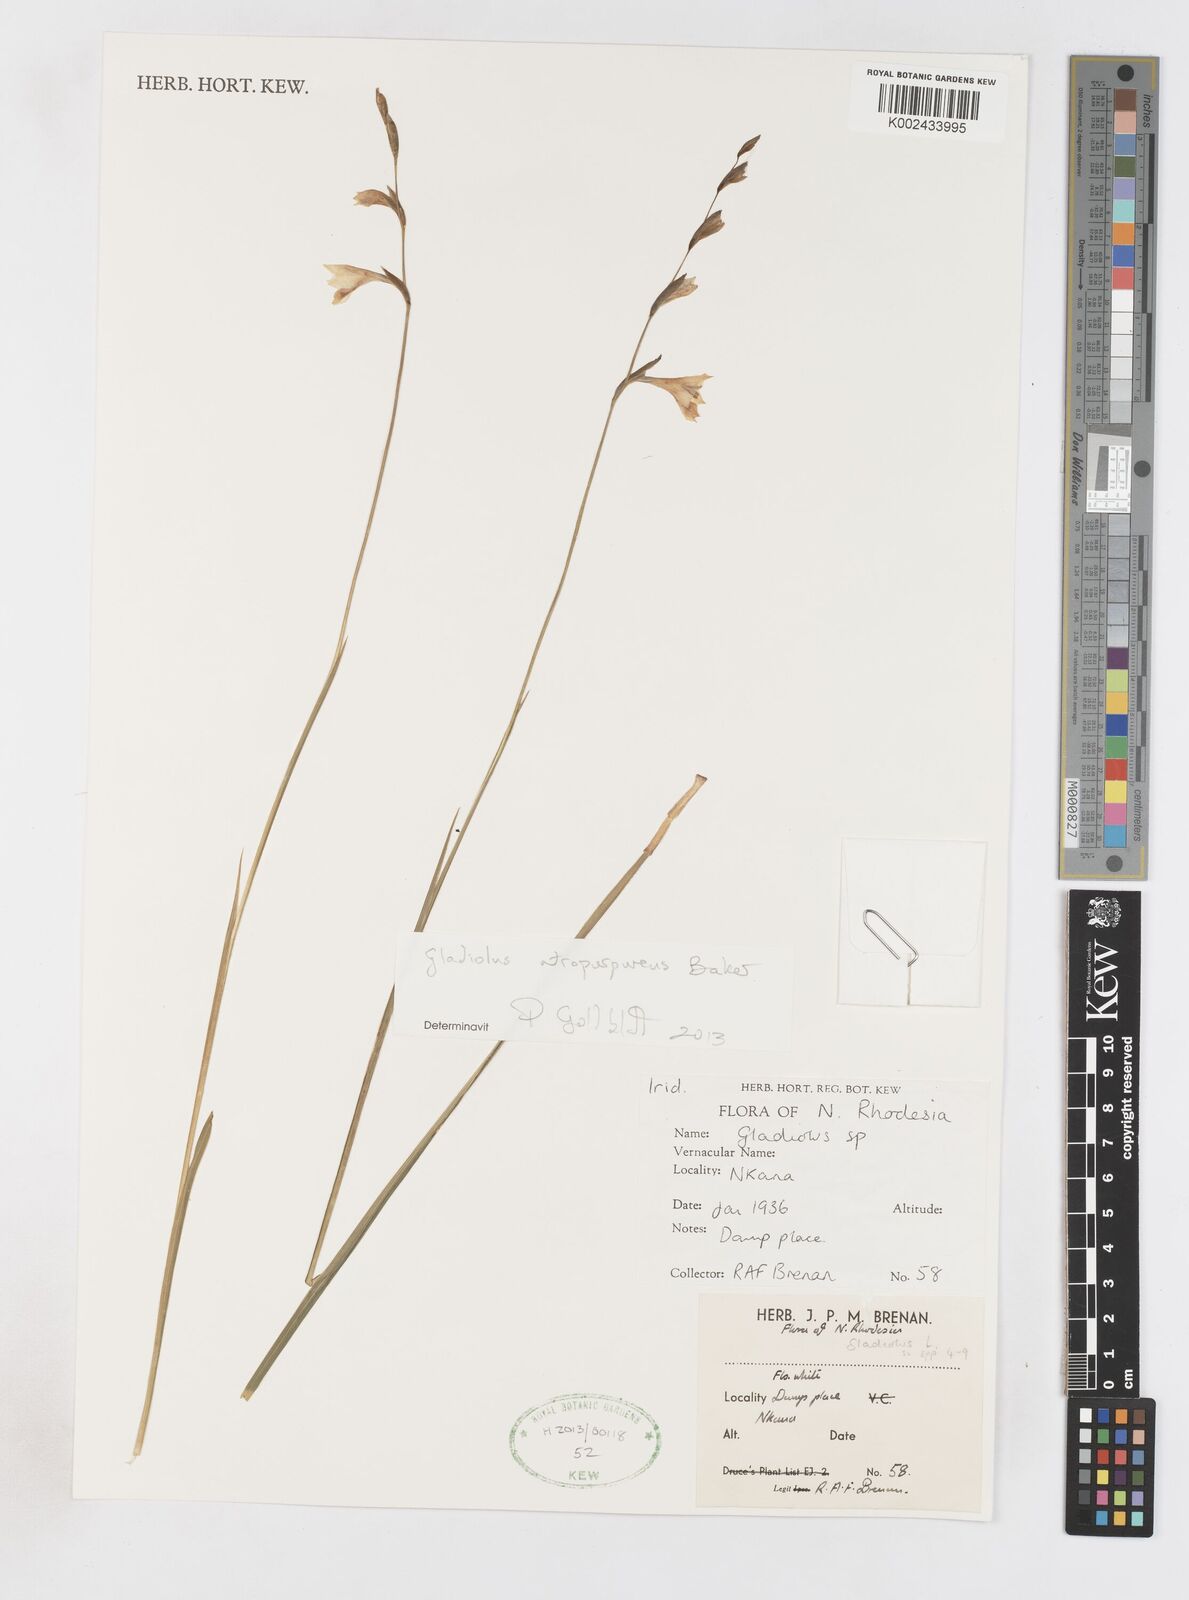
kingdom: Plantae
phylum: Tracheophyta
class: Liliopsida
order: Asparagales
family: Iridaceae
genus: Gladiolus
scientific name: Gladiolus atropurpureus
